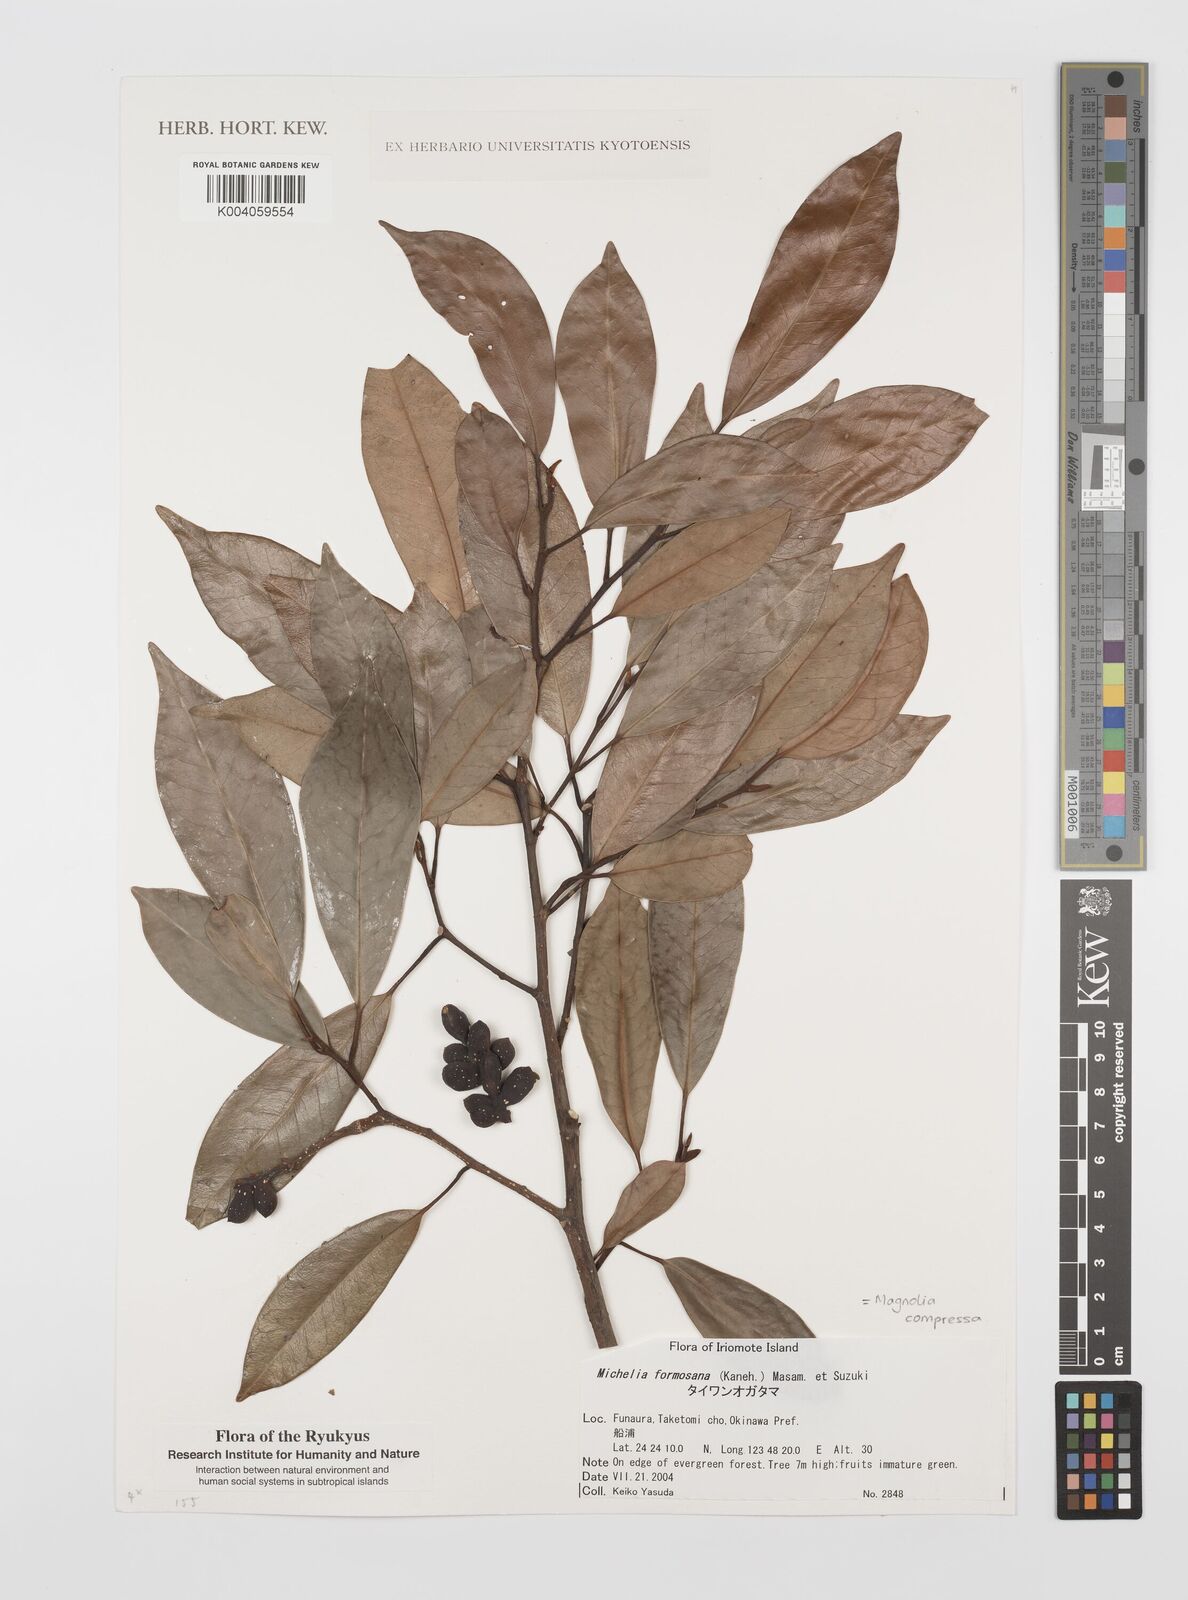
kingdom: Plantae
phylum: Tracheophyta
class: Magnoliopsida
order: Magnoliales
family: Magnoliaceae
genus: Magnolia
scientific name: Magnolia compressa
